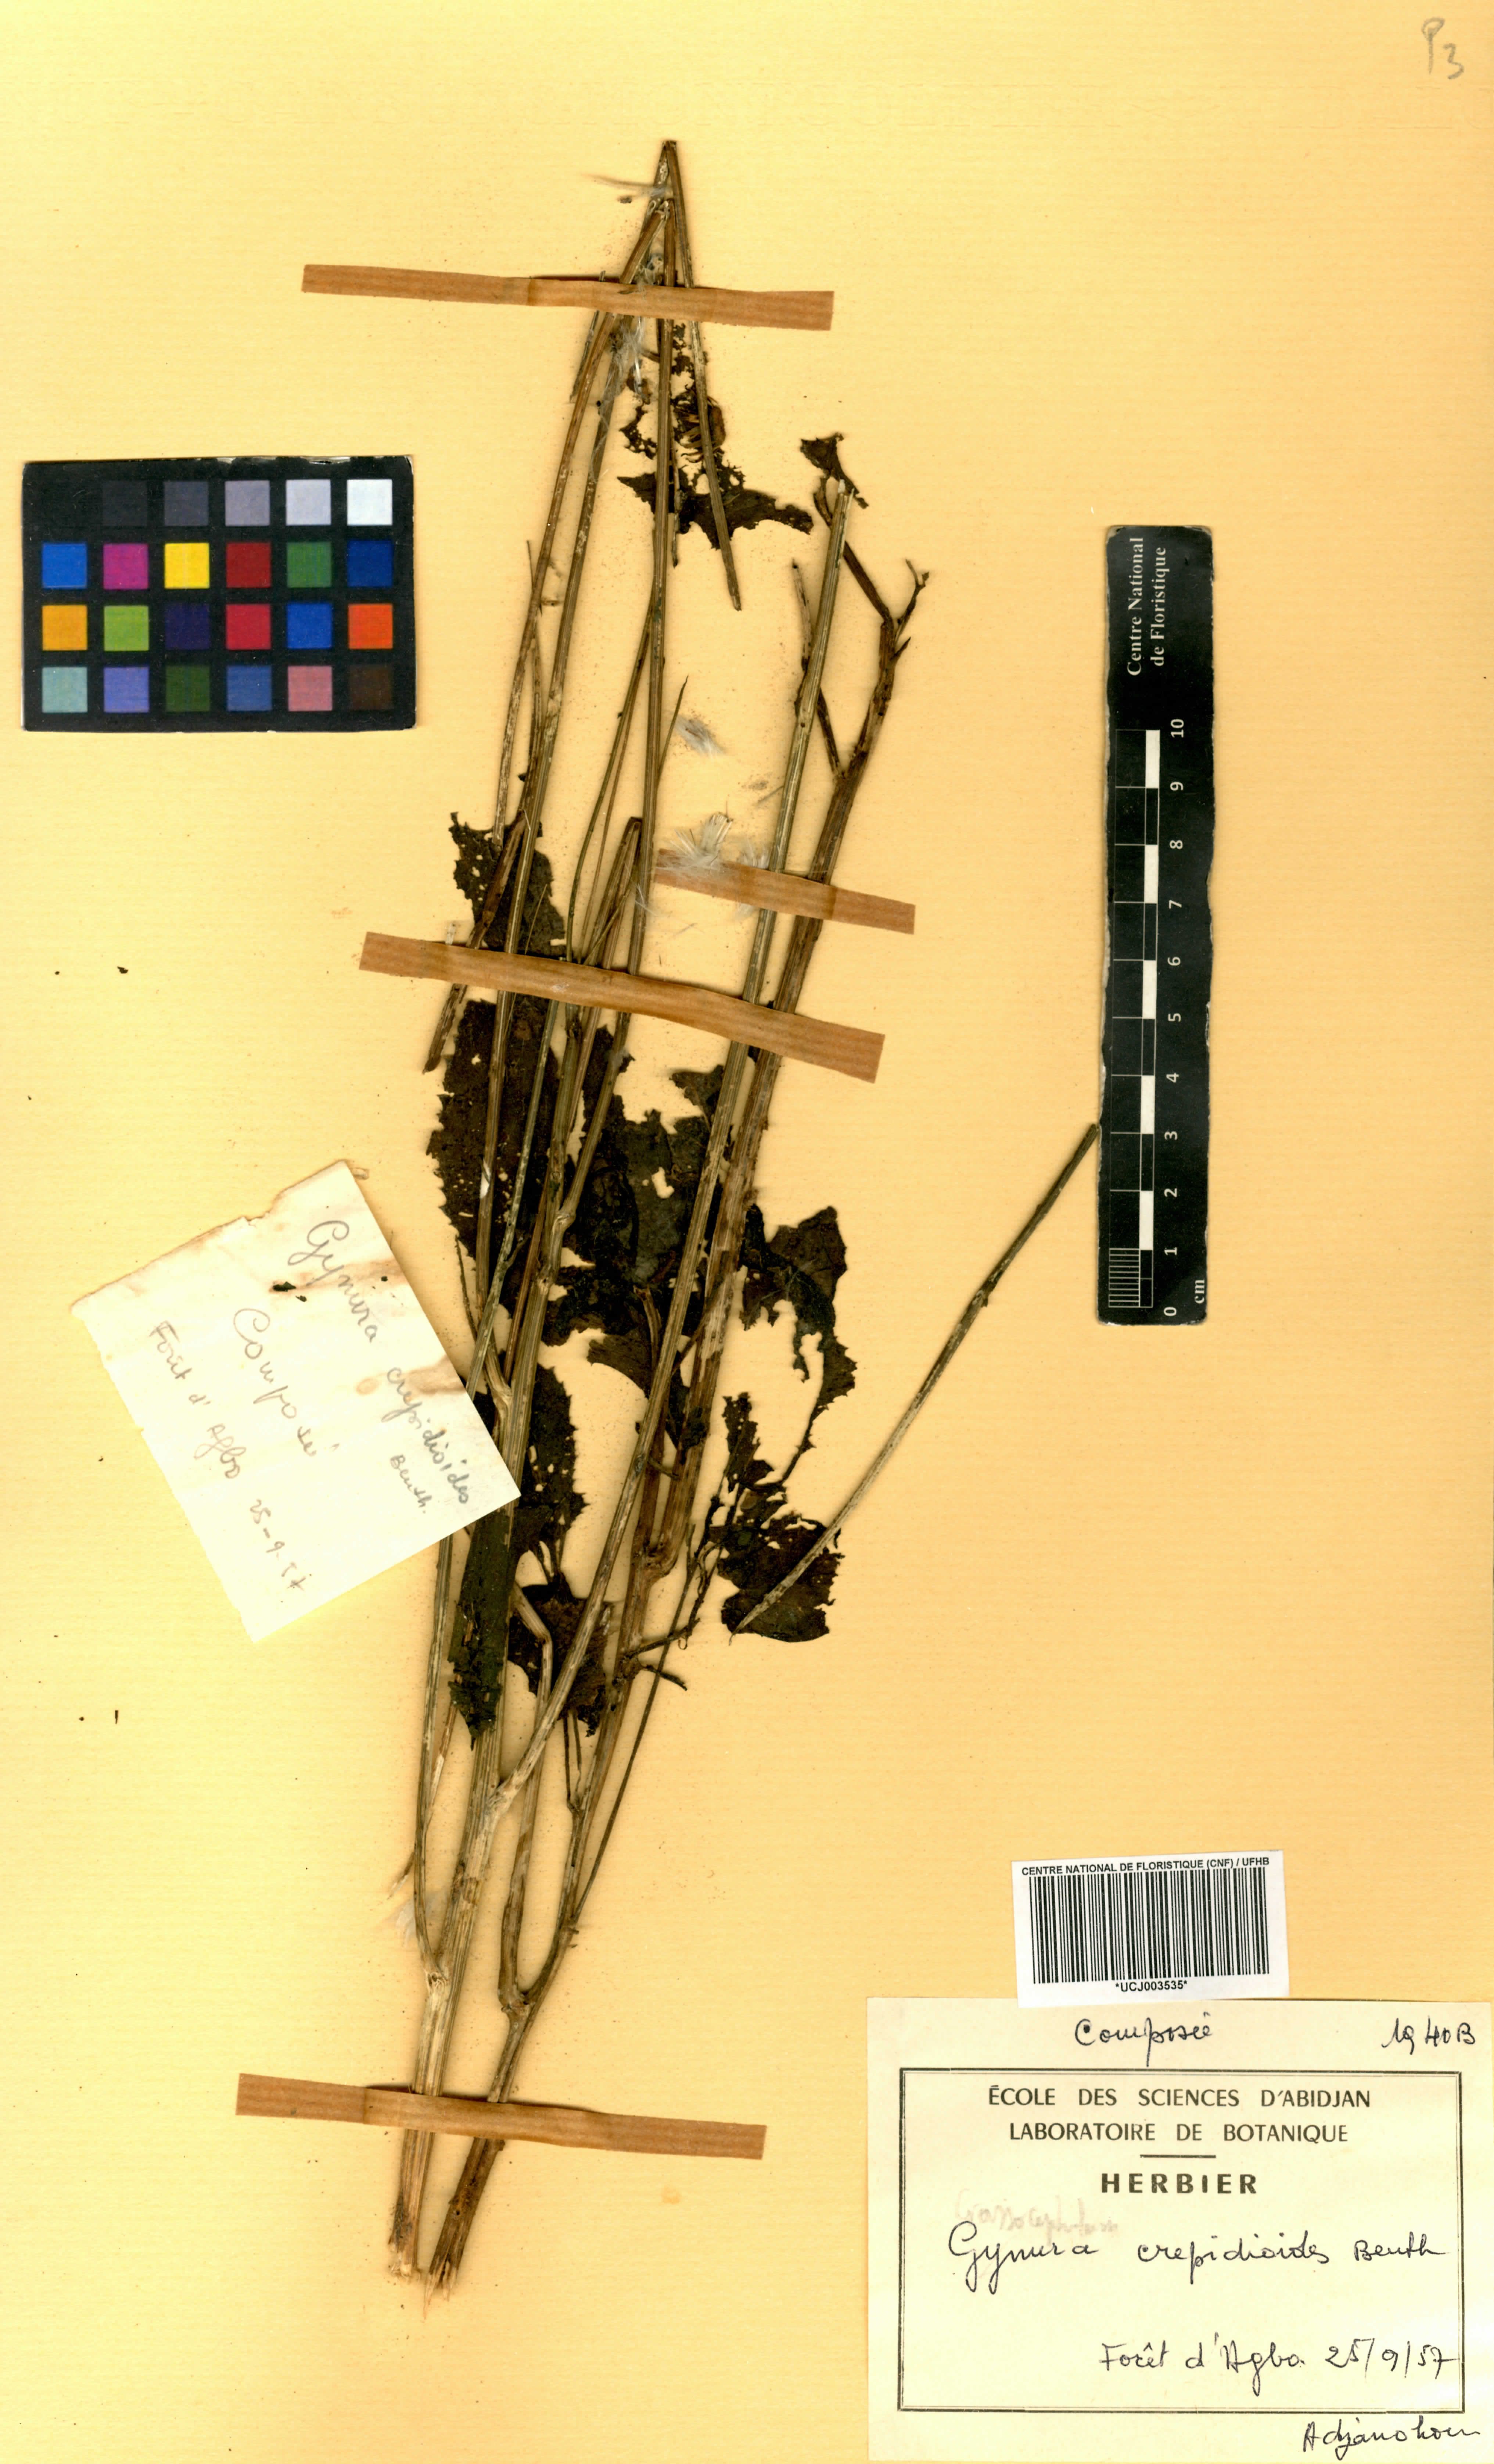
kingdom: Plantae
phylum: Tracheophyta
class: Magnoliopsida
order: Asterales
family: Asteraceae
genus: Crassocephalum
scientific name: Crassocephalum crepidioides
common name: Redflower ragleaf
